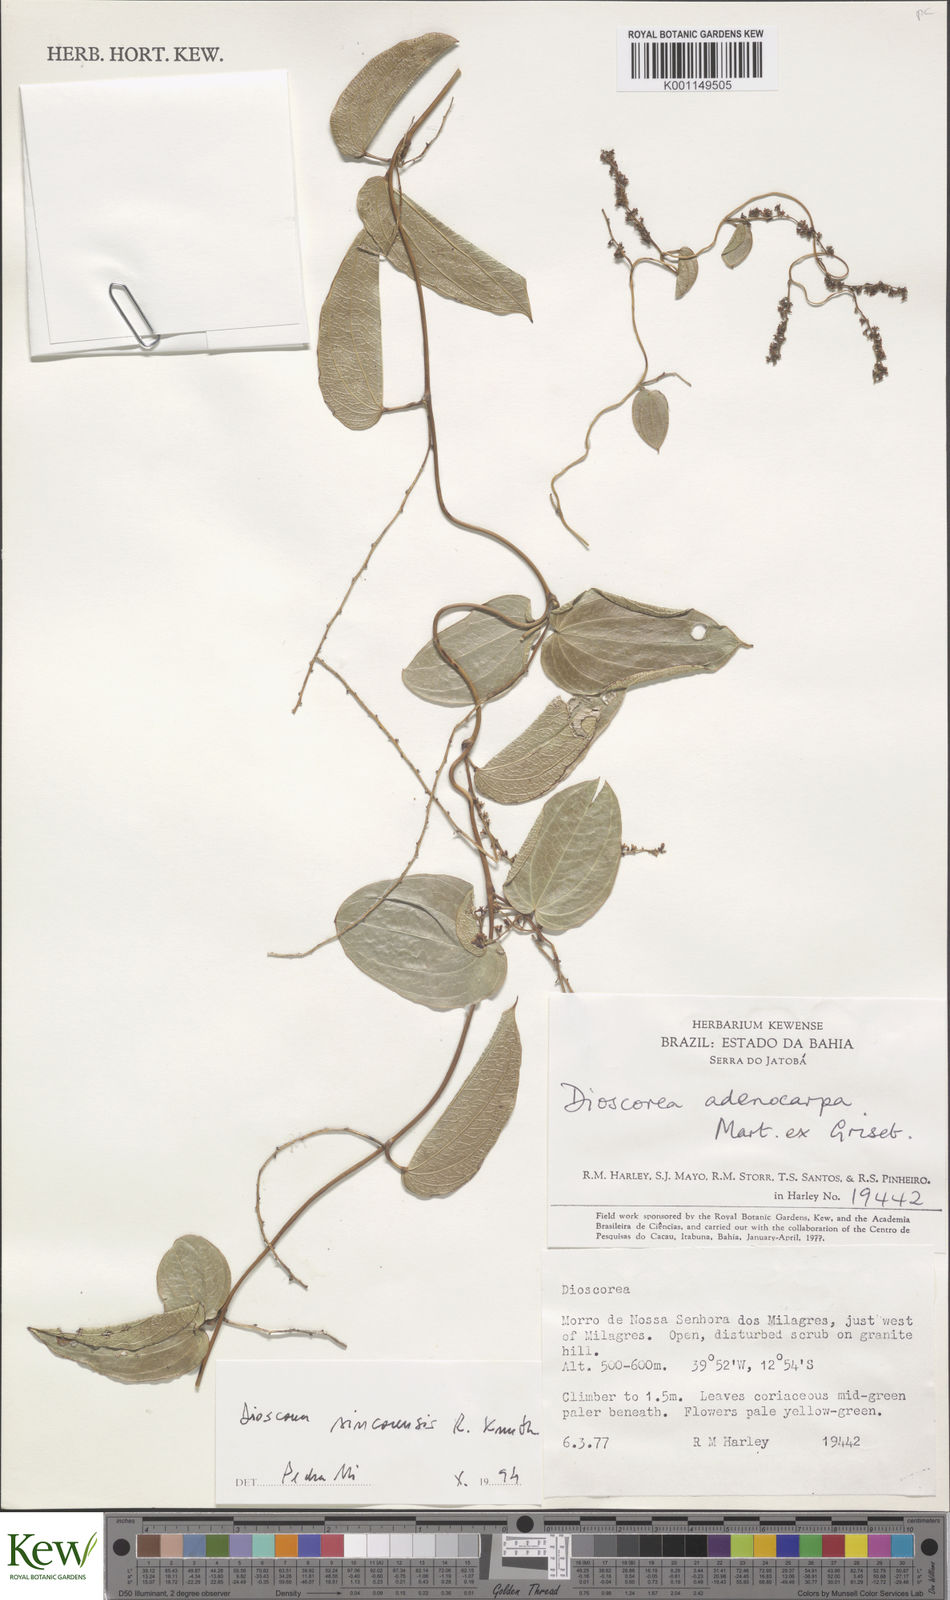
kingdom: Plantae
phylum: Tracheophyta
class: Liliopsida
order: Dioscoreales
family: Dioscoreaceae
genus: Dioscorea
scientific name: Dioscorea sincorensis
